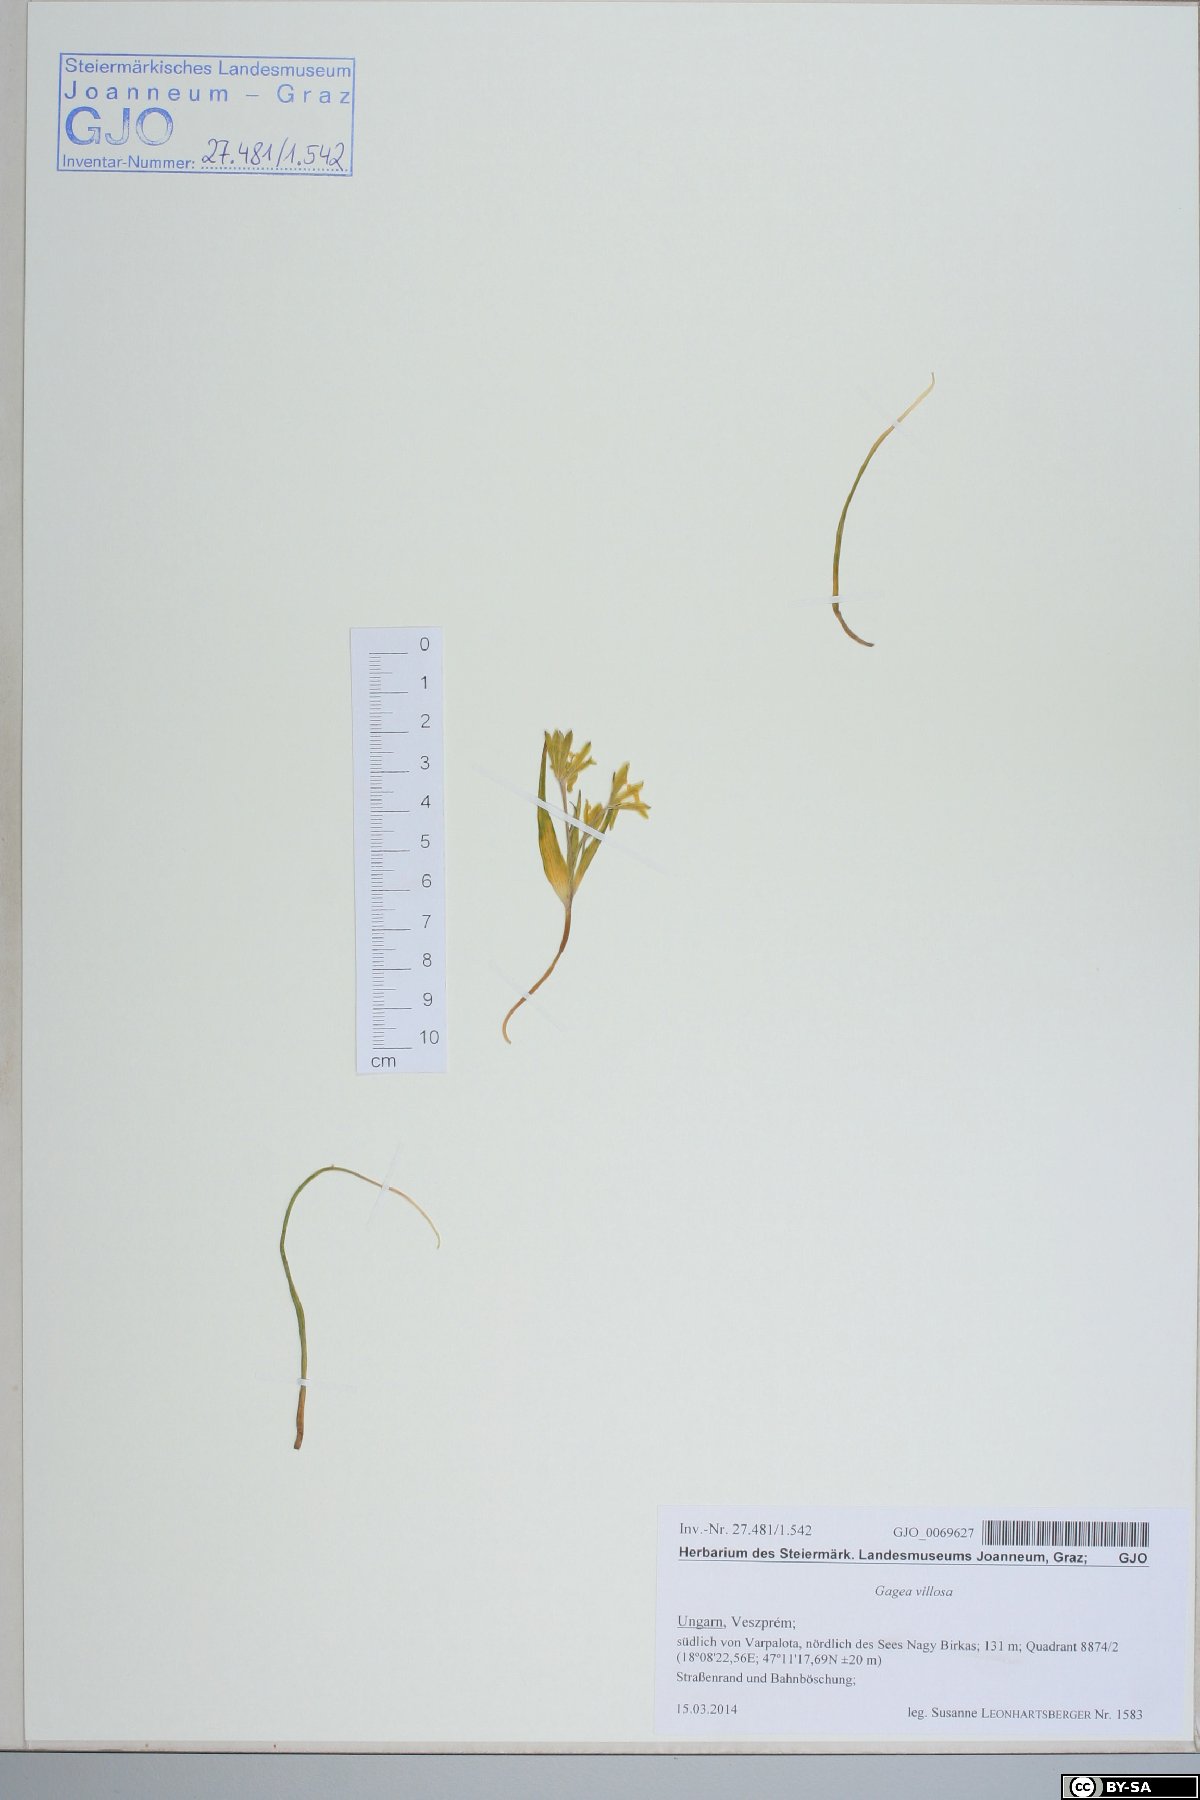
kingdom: Plantae
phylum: Tracheophyta
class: Liliopsida
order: Liliales
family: Liliaceae
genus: Gagea
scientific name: Gagea villosa
